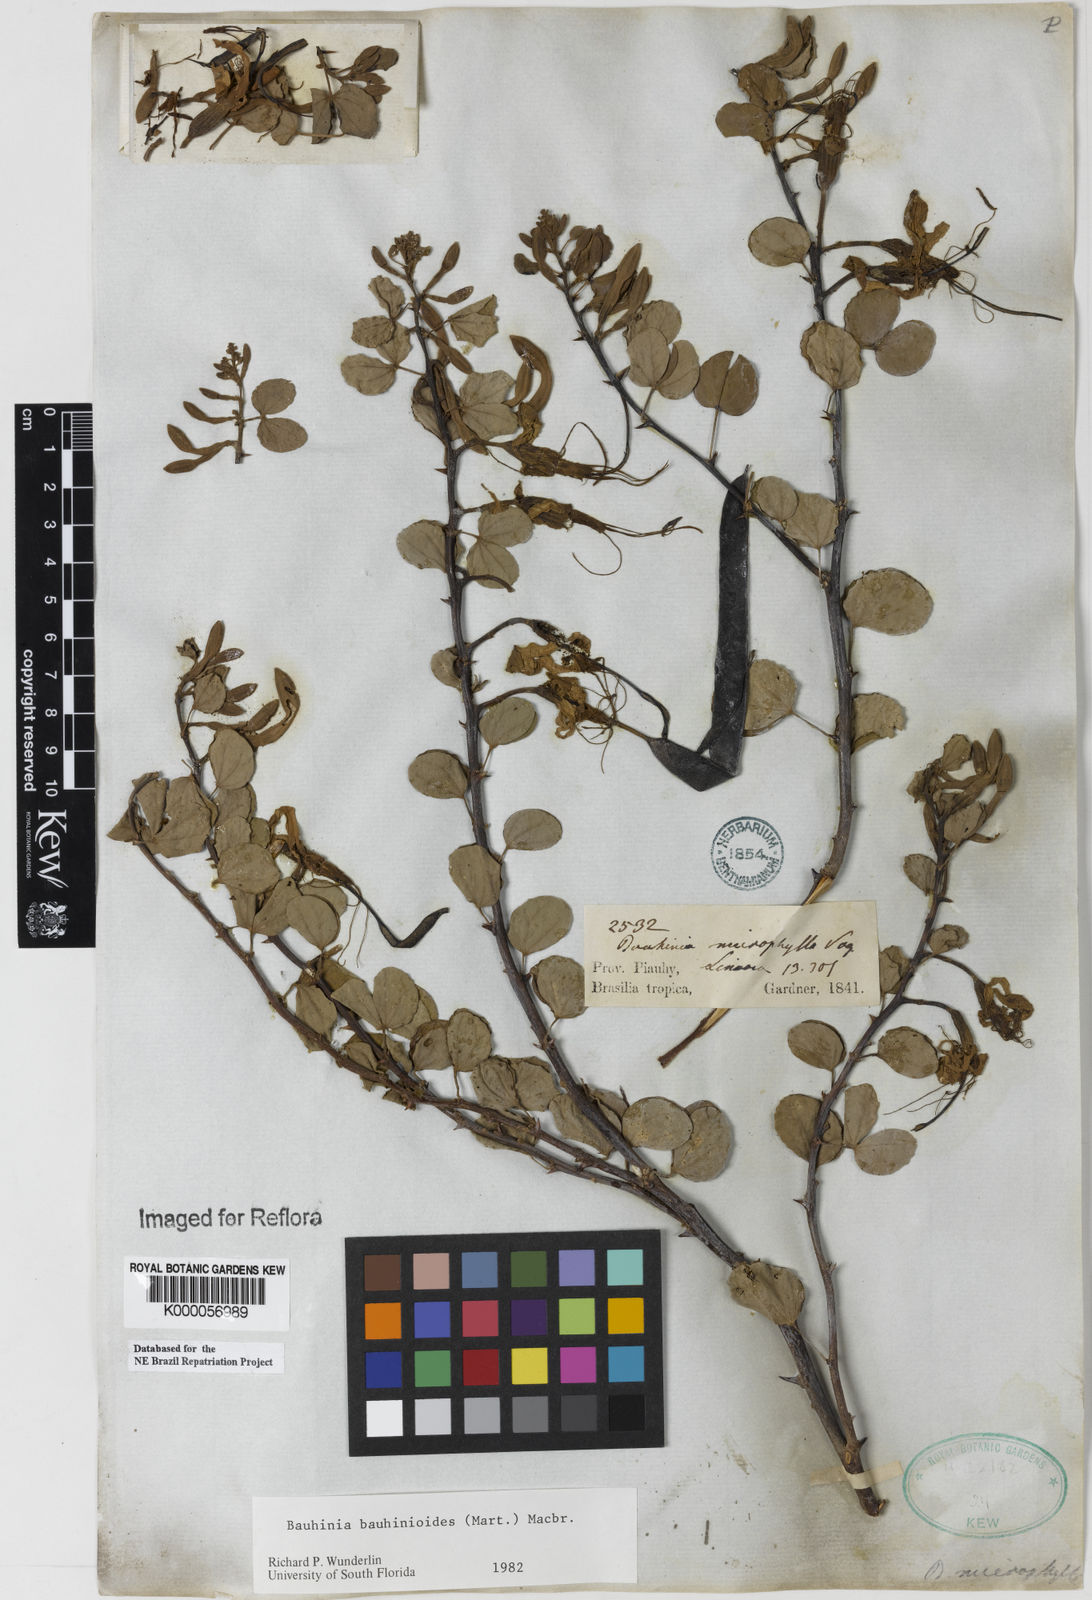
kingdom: Plantae
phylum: Tracheophyta
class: Magnoliopsida
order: Fabales
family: Fabaceae
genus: Bauhinia
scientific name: Bauhinia bauhinioides
